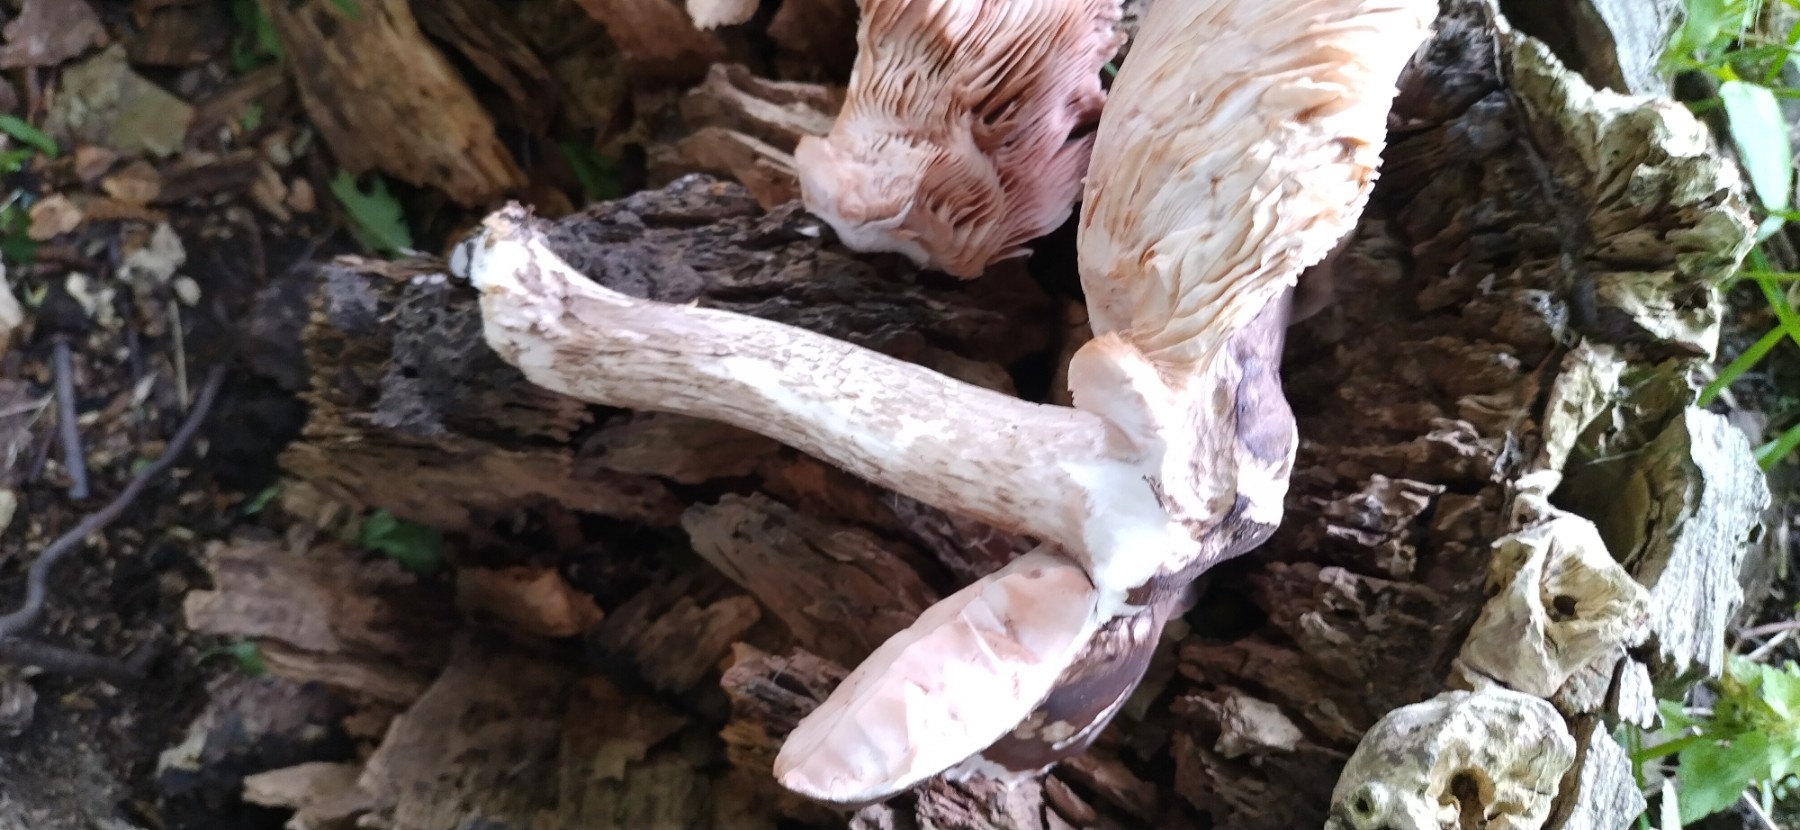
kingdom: Fungi
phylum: Basidiomycota
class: Agaricomycetes
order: Agaricales
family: Pluteaceae
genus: Pluteus
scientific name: Pluteus cervinus
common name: sodfarvet skærmhat
